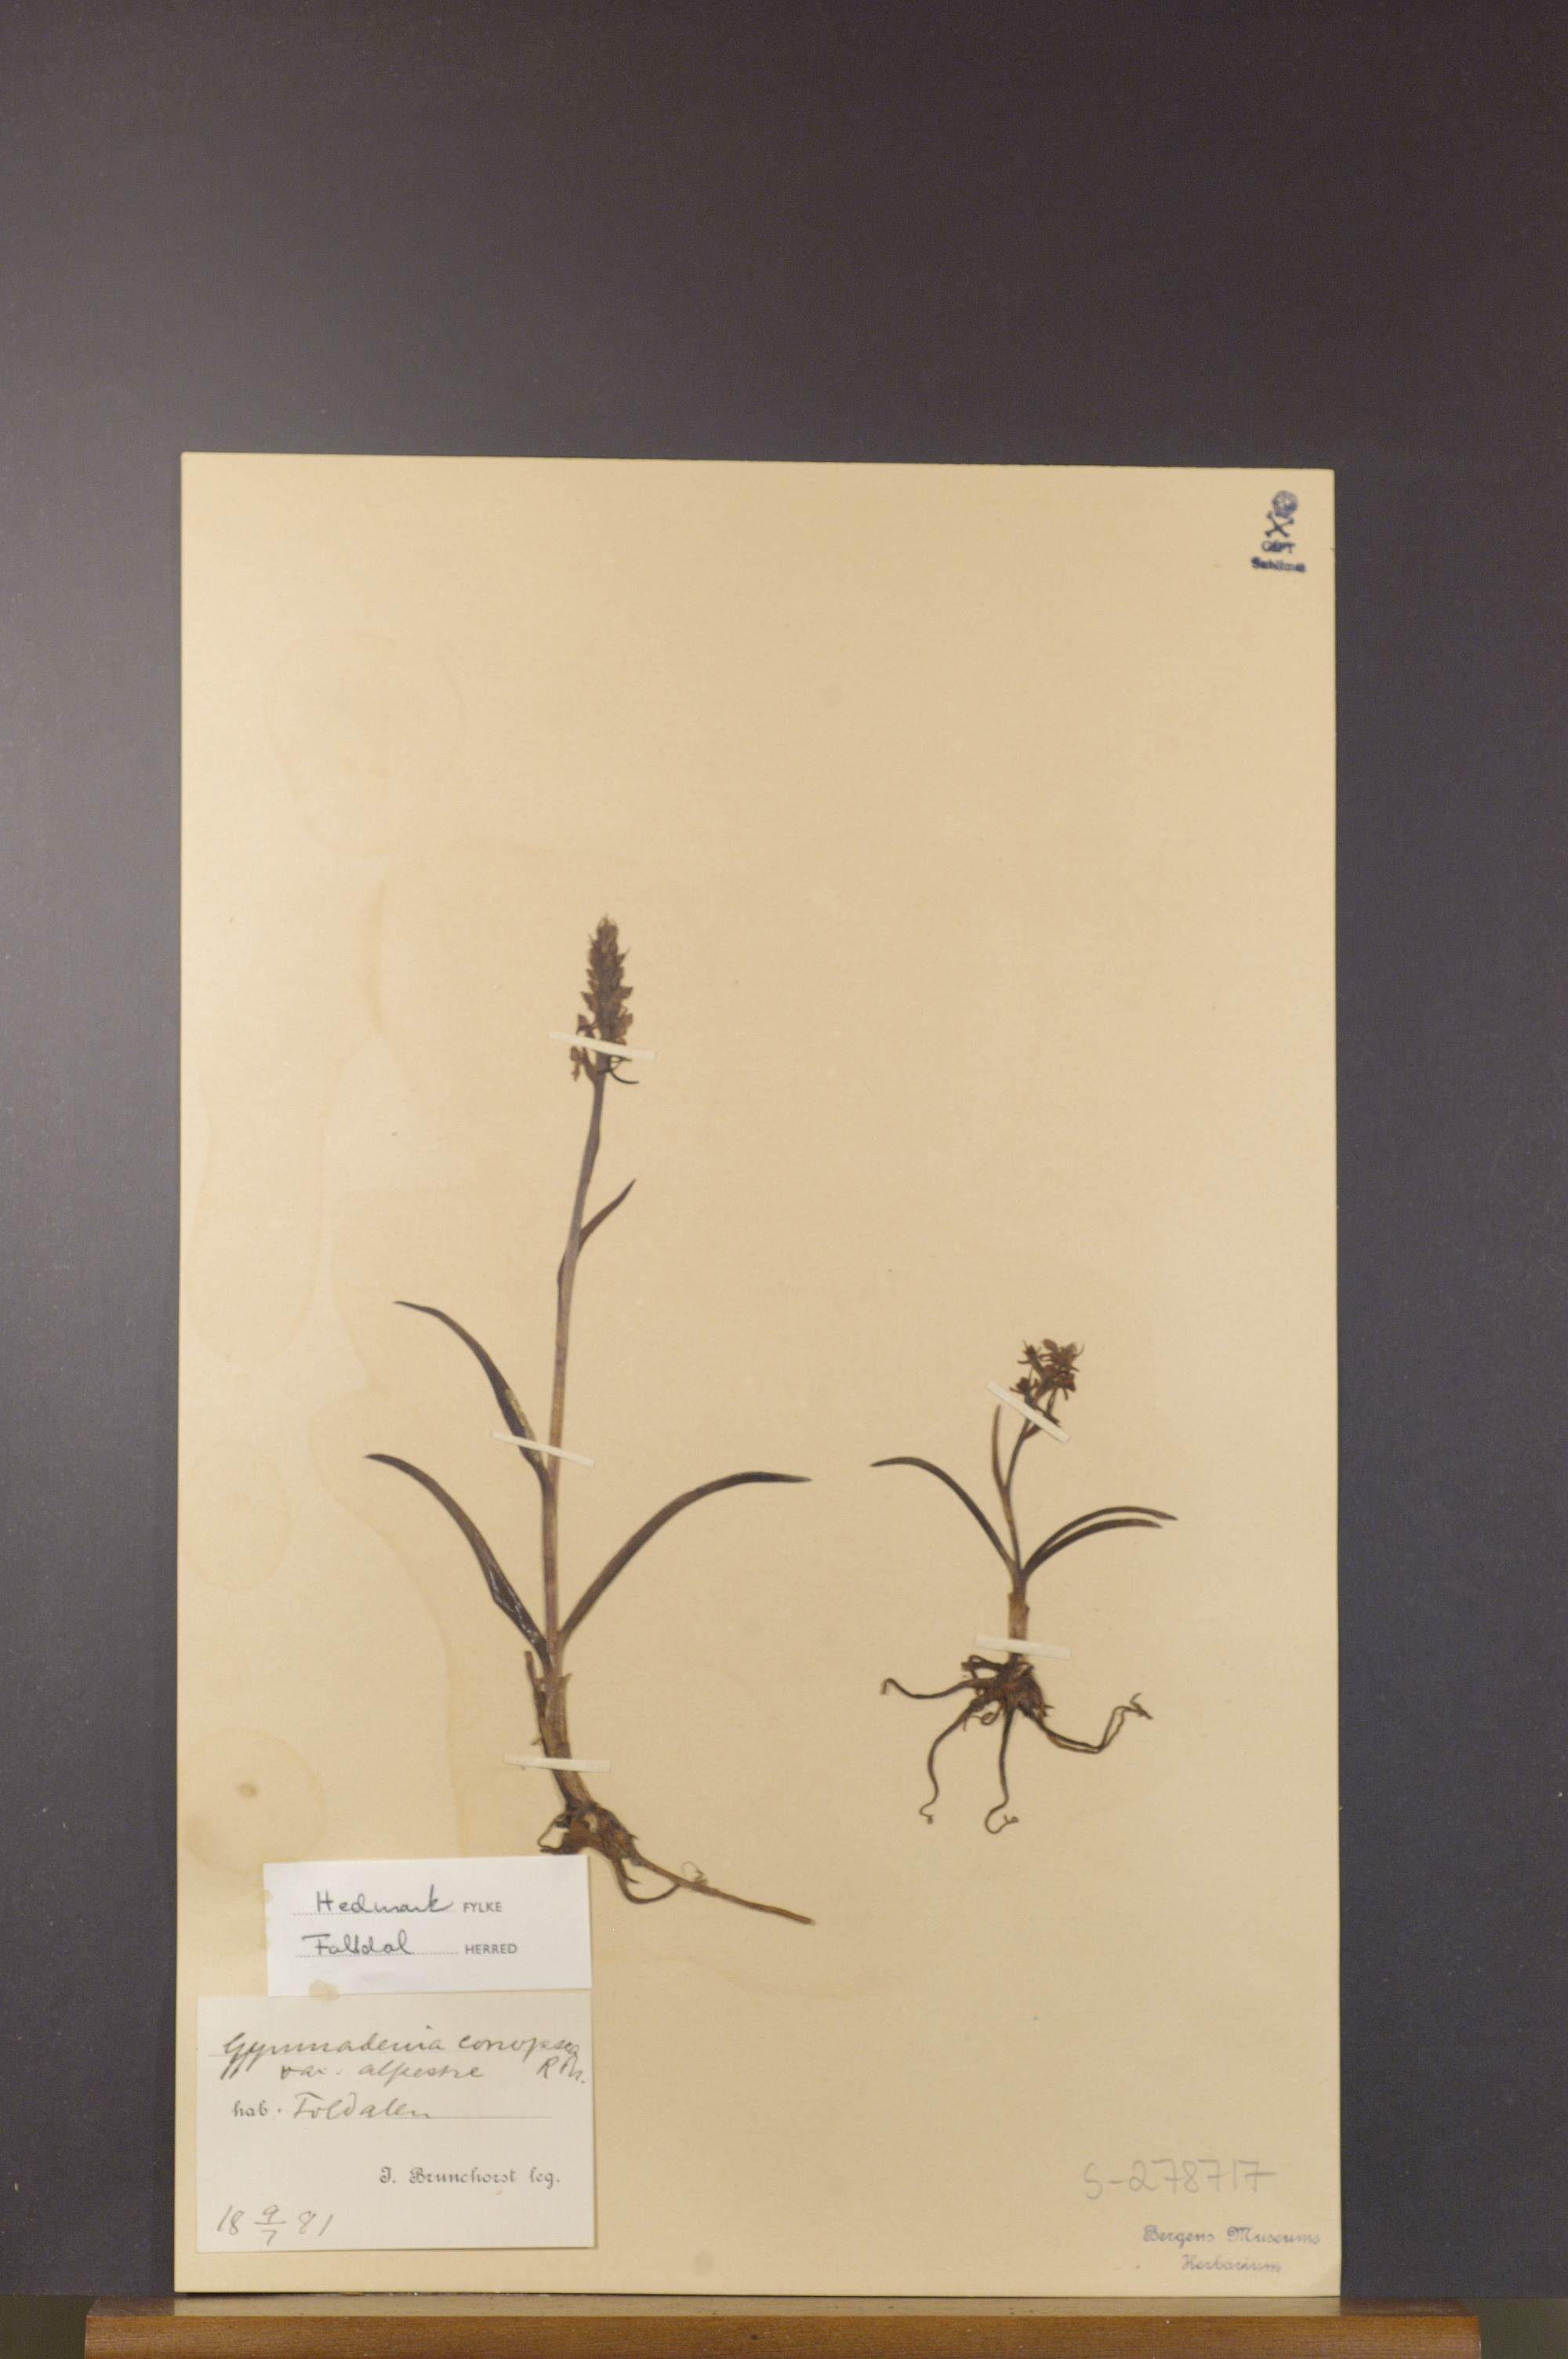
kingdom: Plantae
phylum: Tracheophyta
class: Liliopsida
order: Asparagales
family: Orchidaceae
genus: Gymnadenia
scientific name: Gymnadenia conopsea
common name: Fragrant orchid
